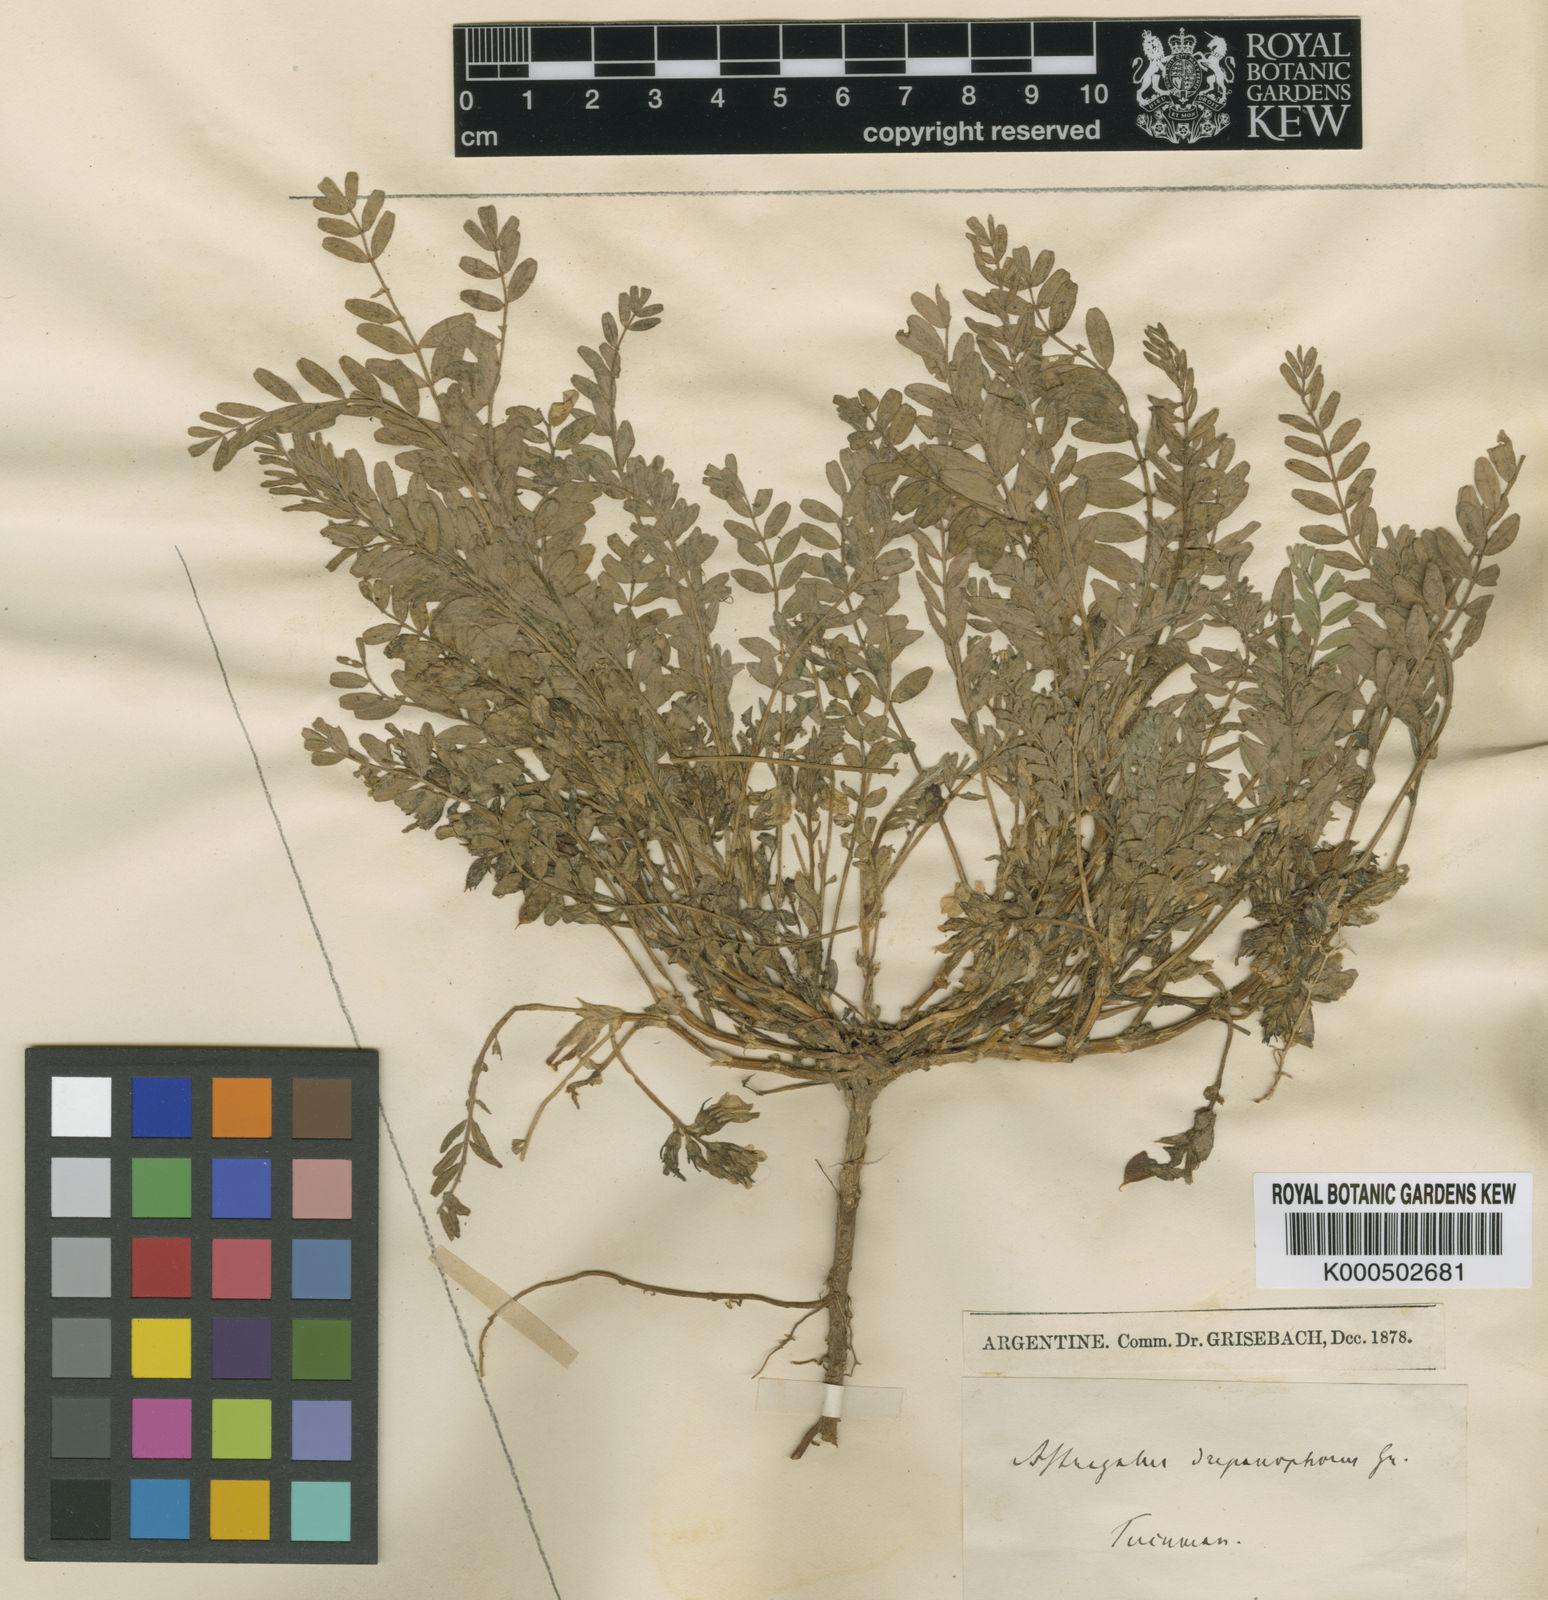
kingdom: Plantae
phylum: Tracheophyta
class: Magnoliopsida
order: Fabales
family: Fabaceae
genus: Astragalus
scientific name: Astragalus arequipensis
